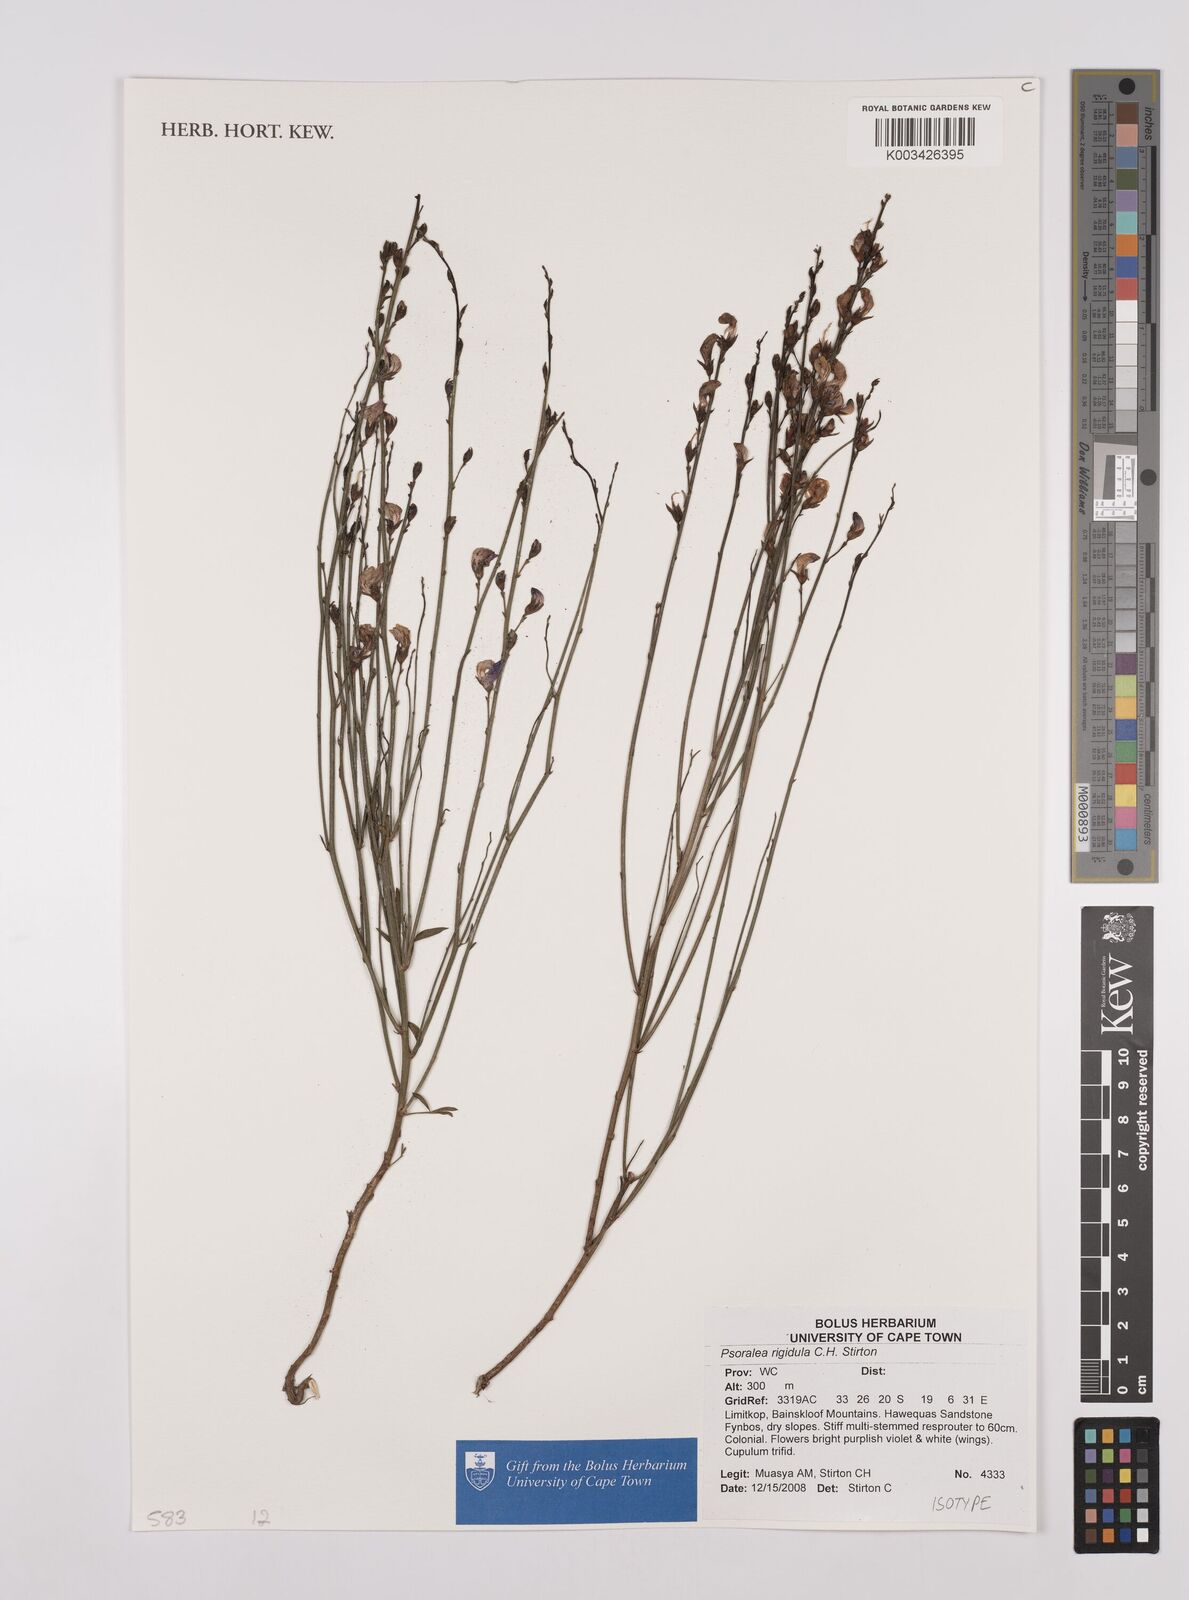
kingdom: Plantae
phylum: Tracheophyta
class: Magnoliopsida
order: Fabales
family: Fabaceae
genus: Psoralea
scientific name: Psoralea rigidula
